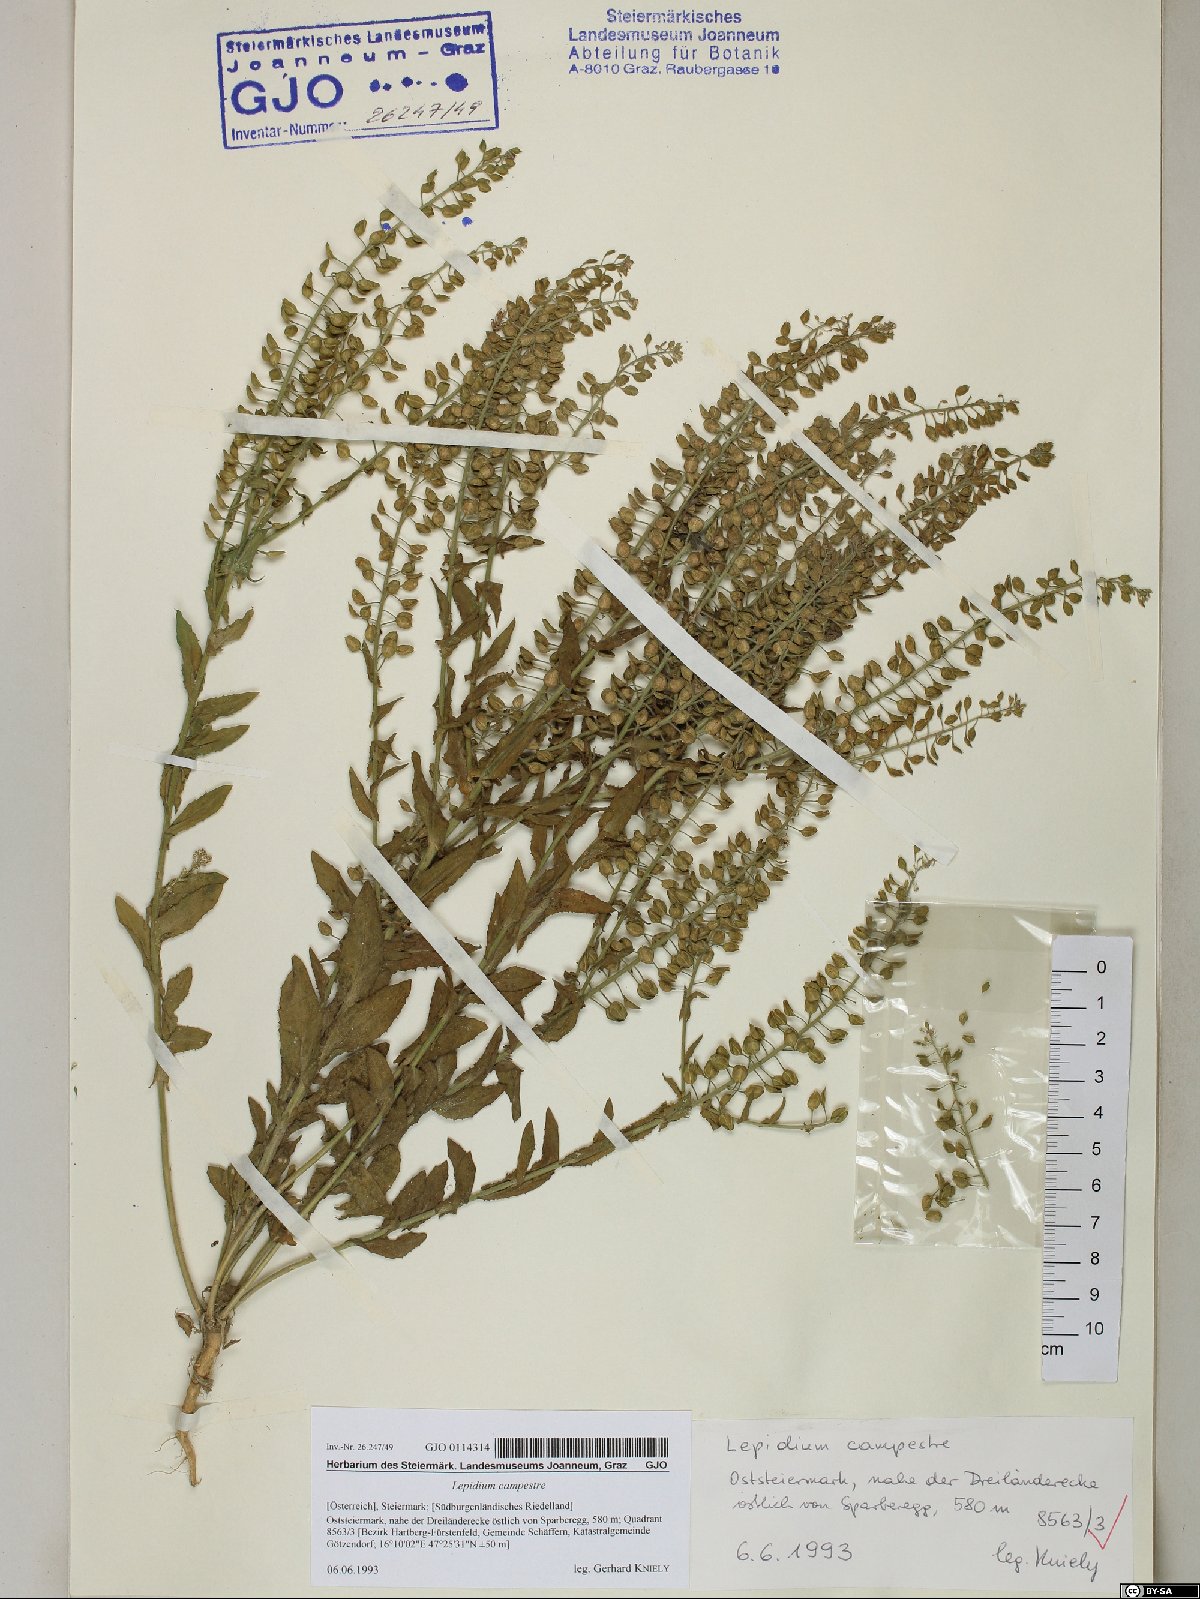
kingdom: Plantae
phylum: Tracheophyta
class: Magnoliopsida
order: Brassicales
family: Brassicaceae
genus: Lepidium
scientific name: Lepidium campestre
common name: Field pepperwort
